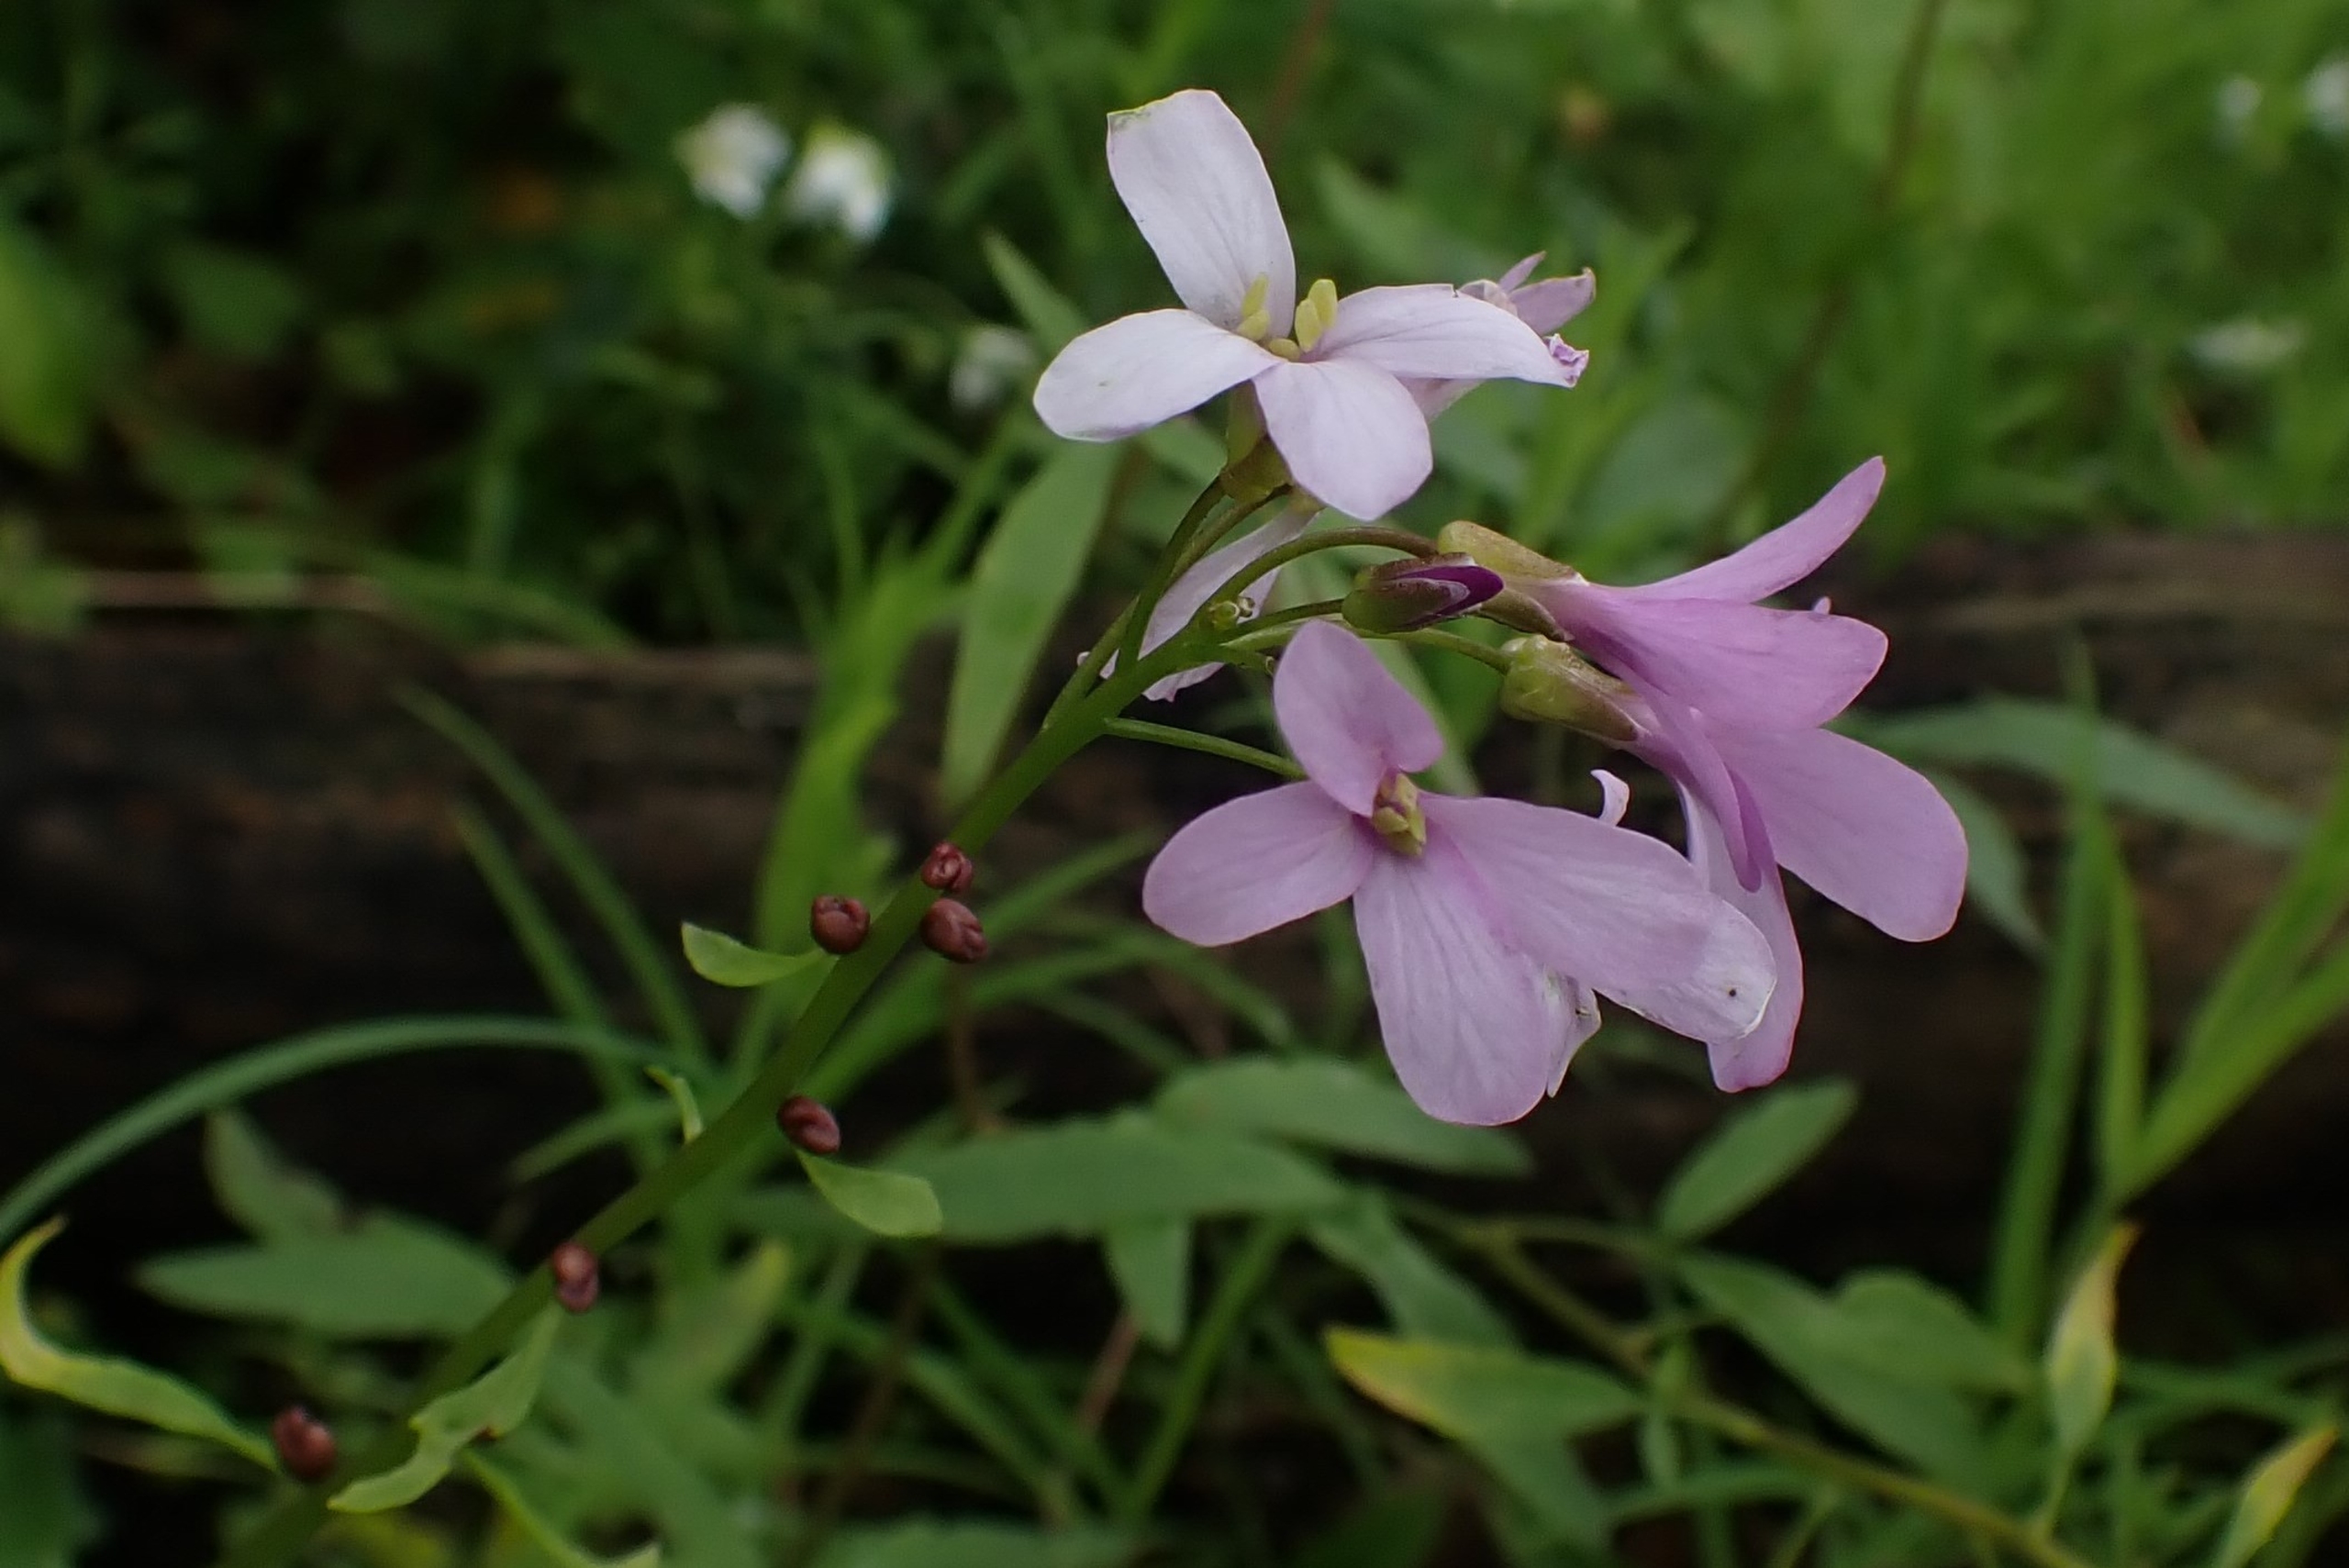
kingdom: Plantae
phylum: Tracheophyta
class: Magnoliopsida
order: Brassicales
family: Brassicaceae
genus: Cardamine
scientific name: Cardamine bulbifera
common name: Tandrod
